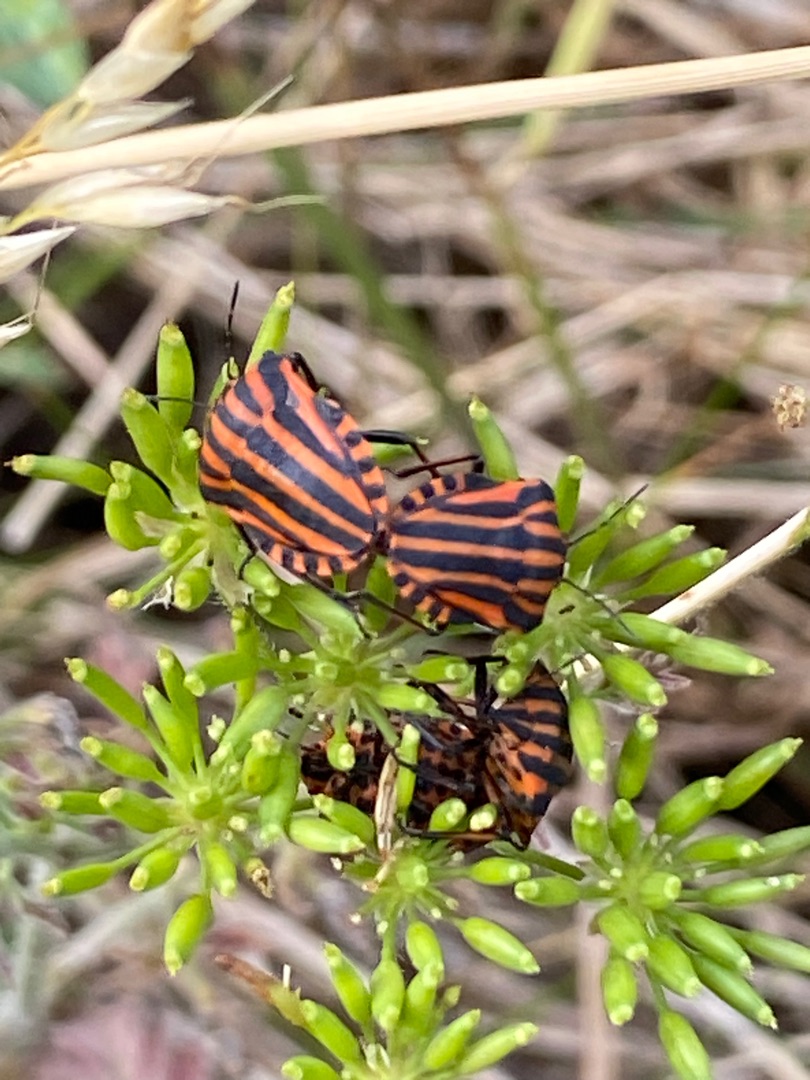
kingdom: Animalia
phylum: Arthropoda
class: Insecta
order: Hemiptera
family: Pentatomidae
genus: Graphosoma
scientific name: Graphosoma italicum
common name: Stribetæge
